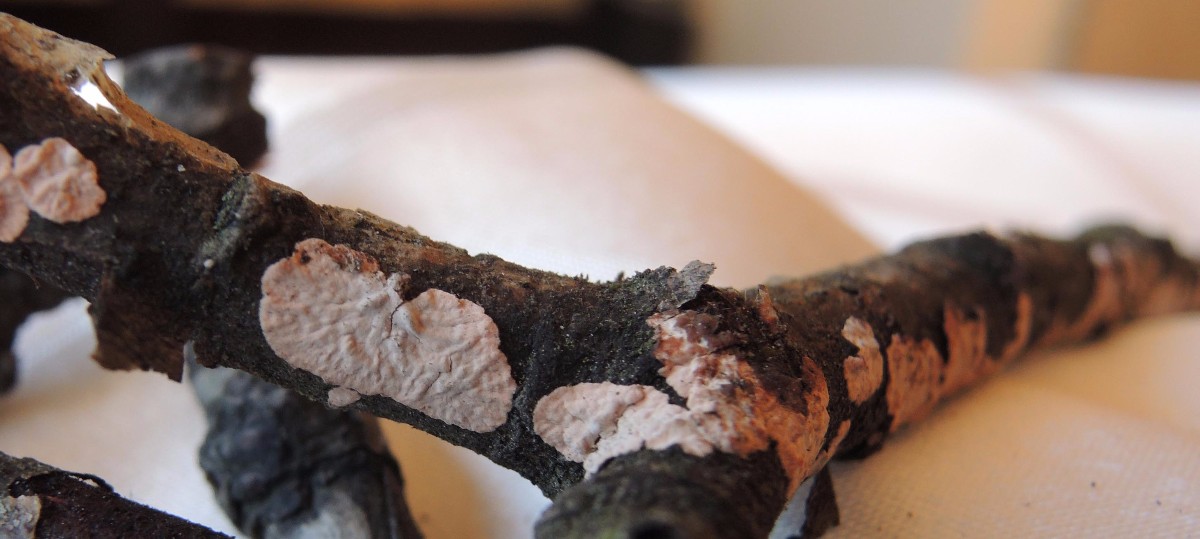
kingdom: Fungi
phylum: Basidiomycota
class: Agaricomycetes
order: Corticiales
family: Corticiaceae
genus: Corticium
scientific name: Corticium roseum
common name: rosa barkskind
